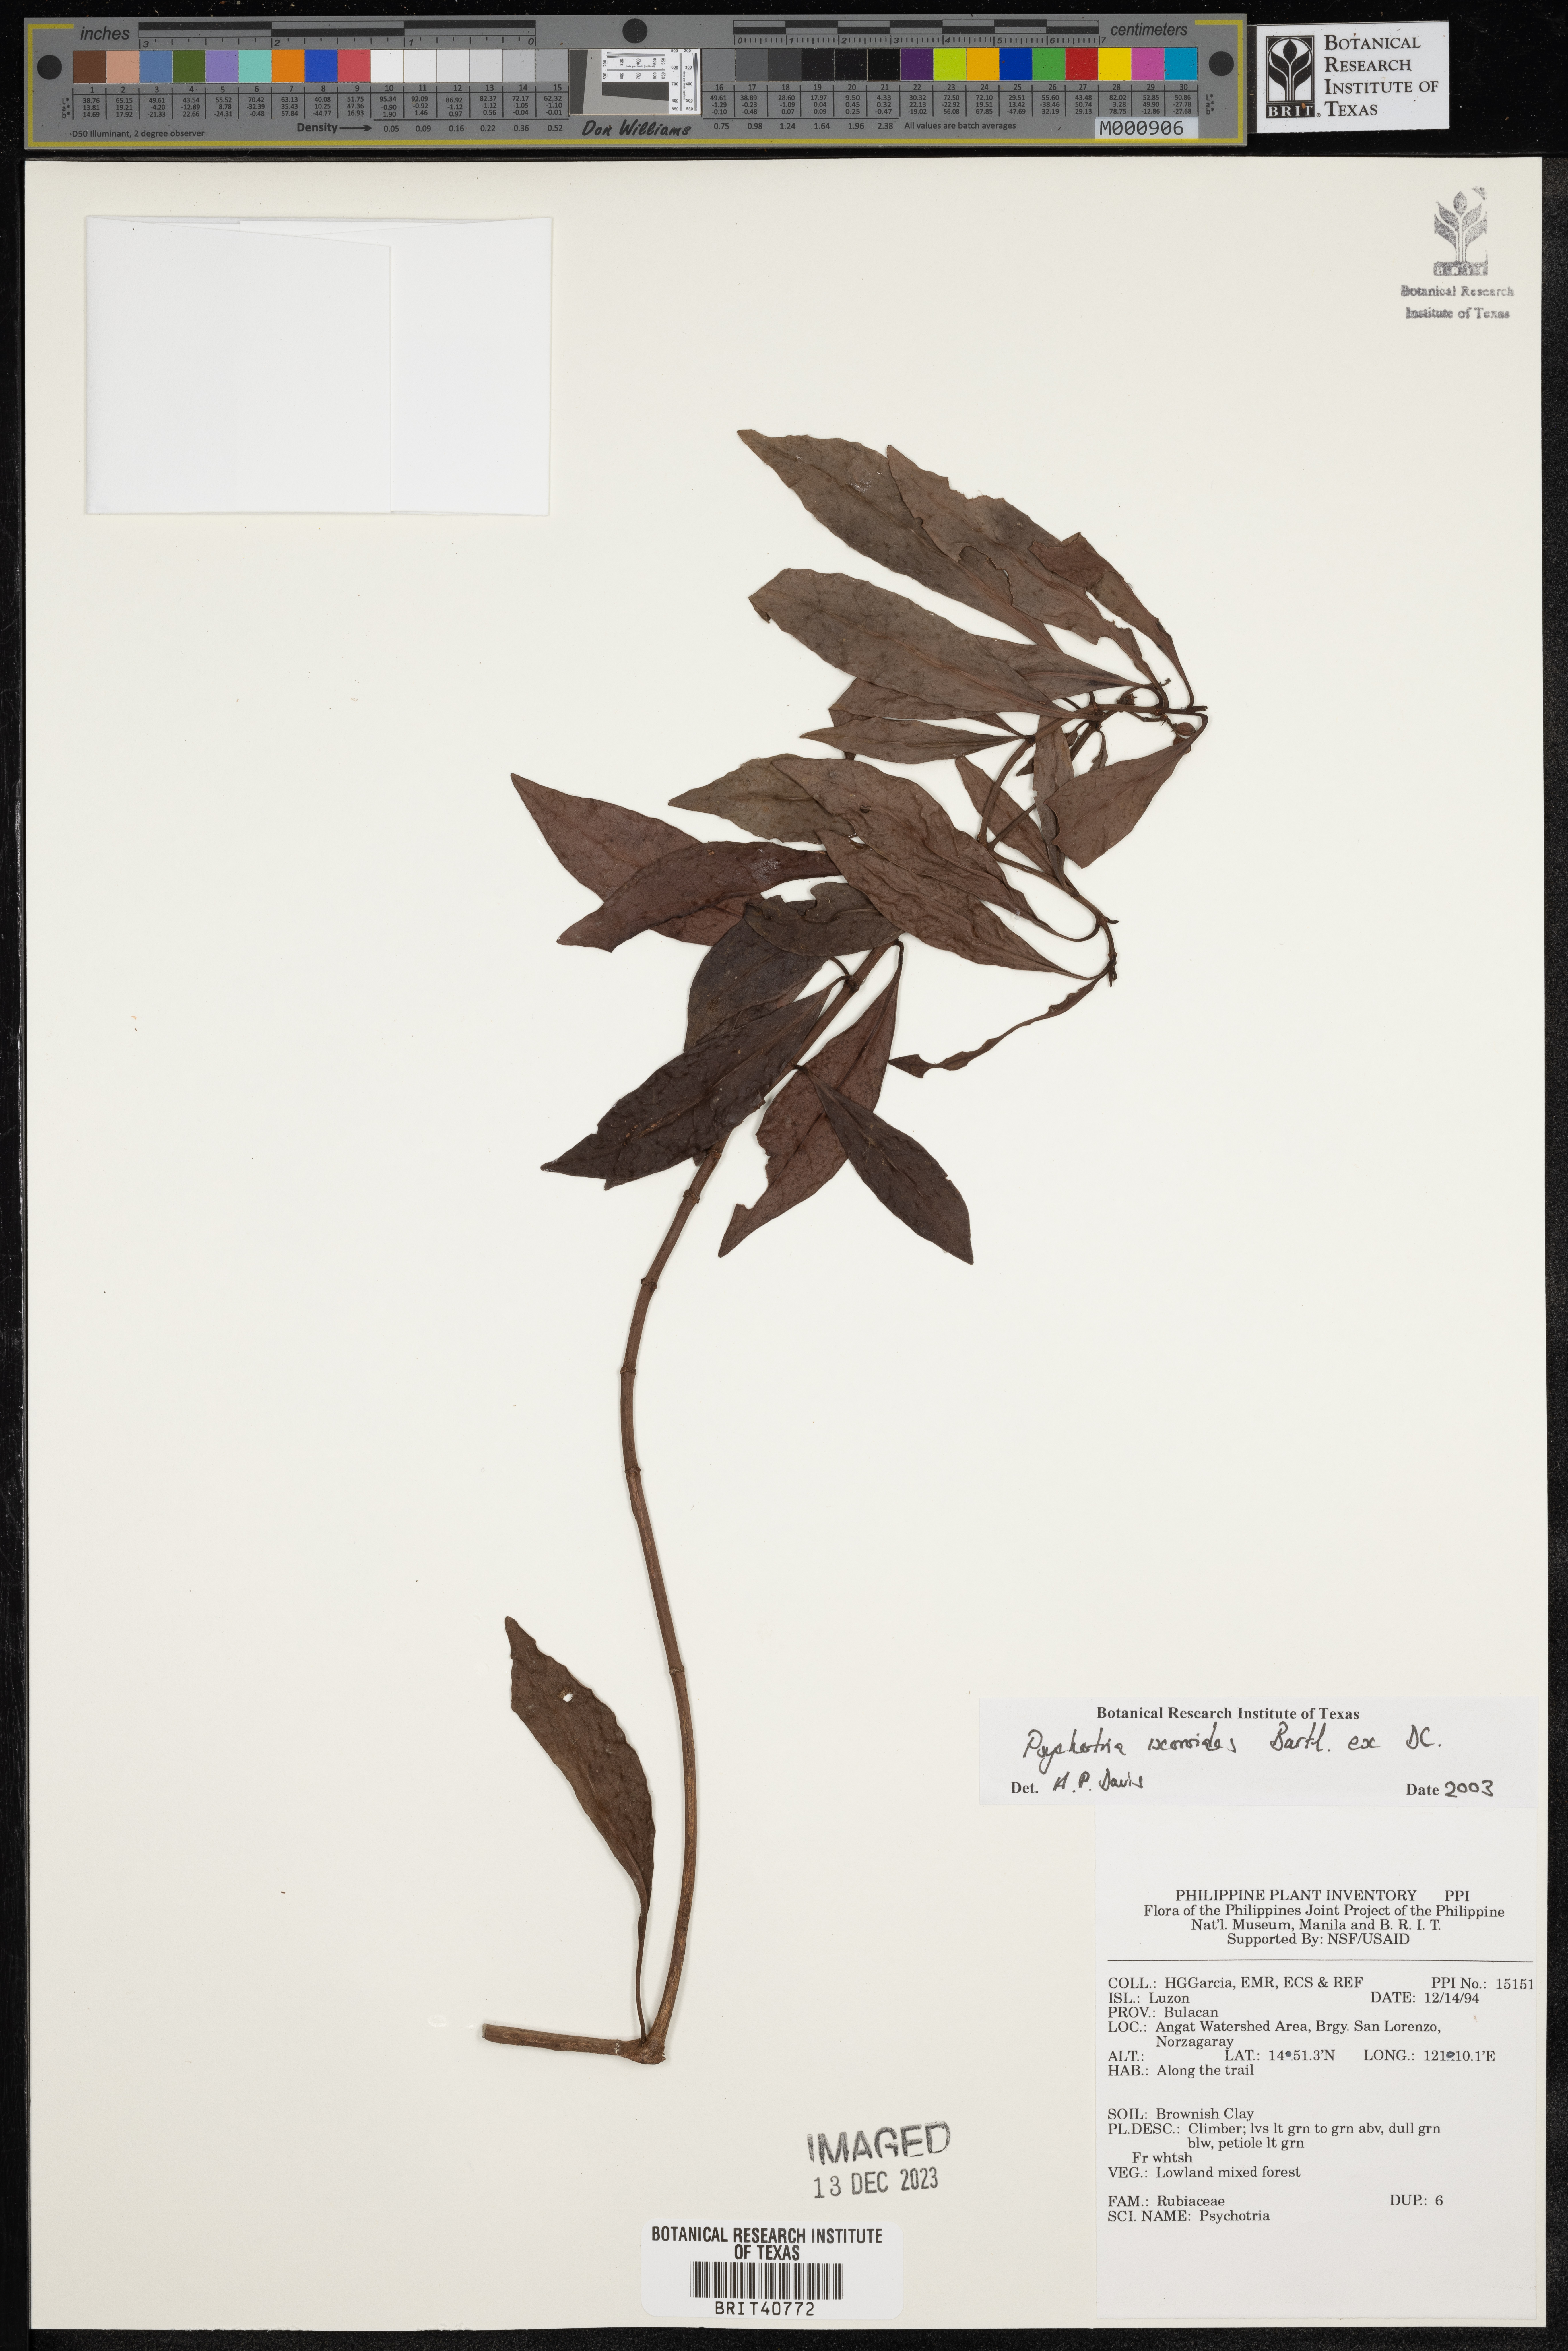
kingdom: Plantae
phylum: Tracheophyta
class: Magnoliopsida
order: Gentianales
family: Rubiaceae
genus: Psychotria
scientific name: Psychotria ixoroides
